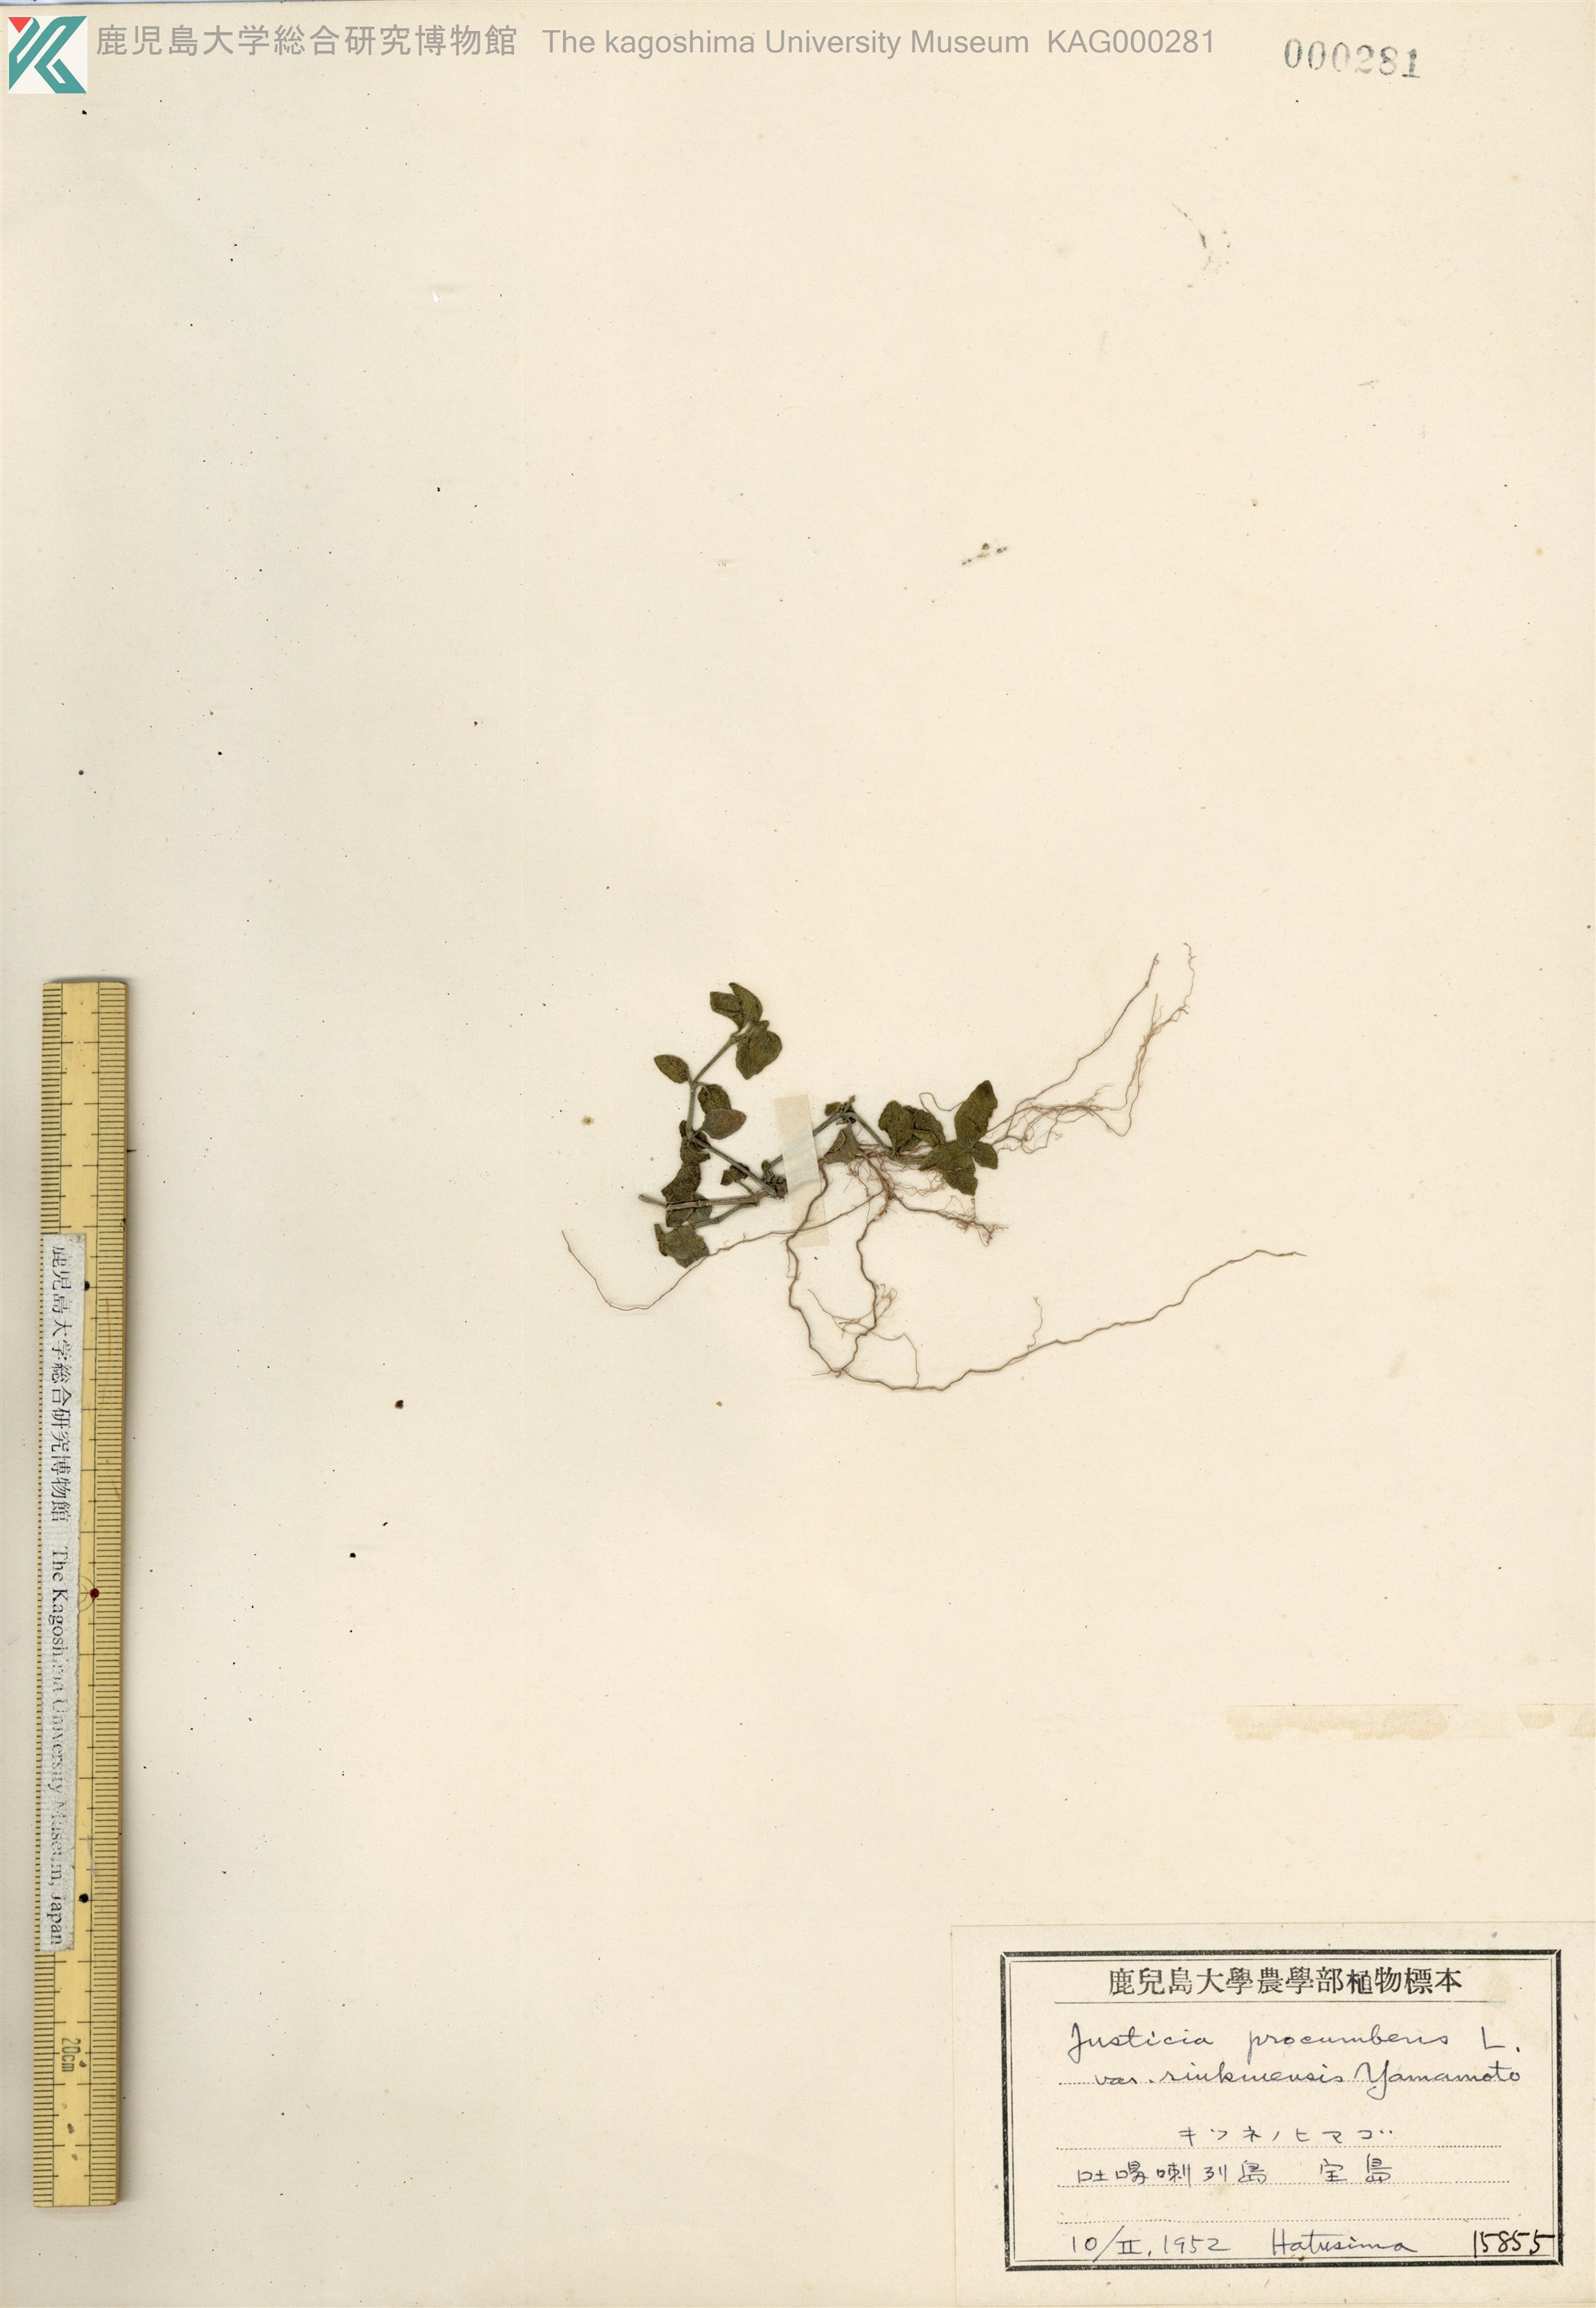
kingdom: Plantae
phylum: Tracheophyta
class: Magnoliopsida
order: Lamiales
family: Acanthaceae
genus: Rostellularia
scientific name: Rostellularia procumbens
